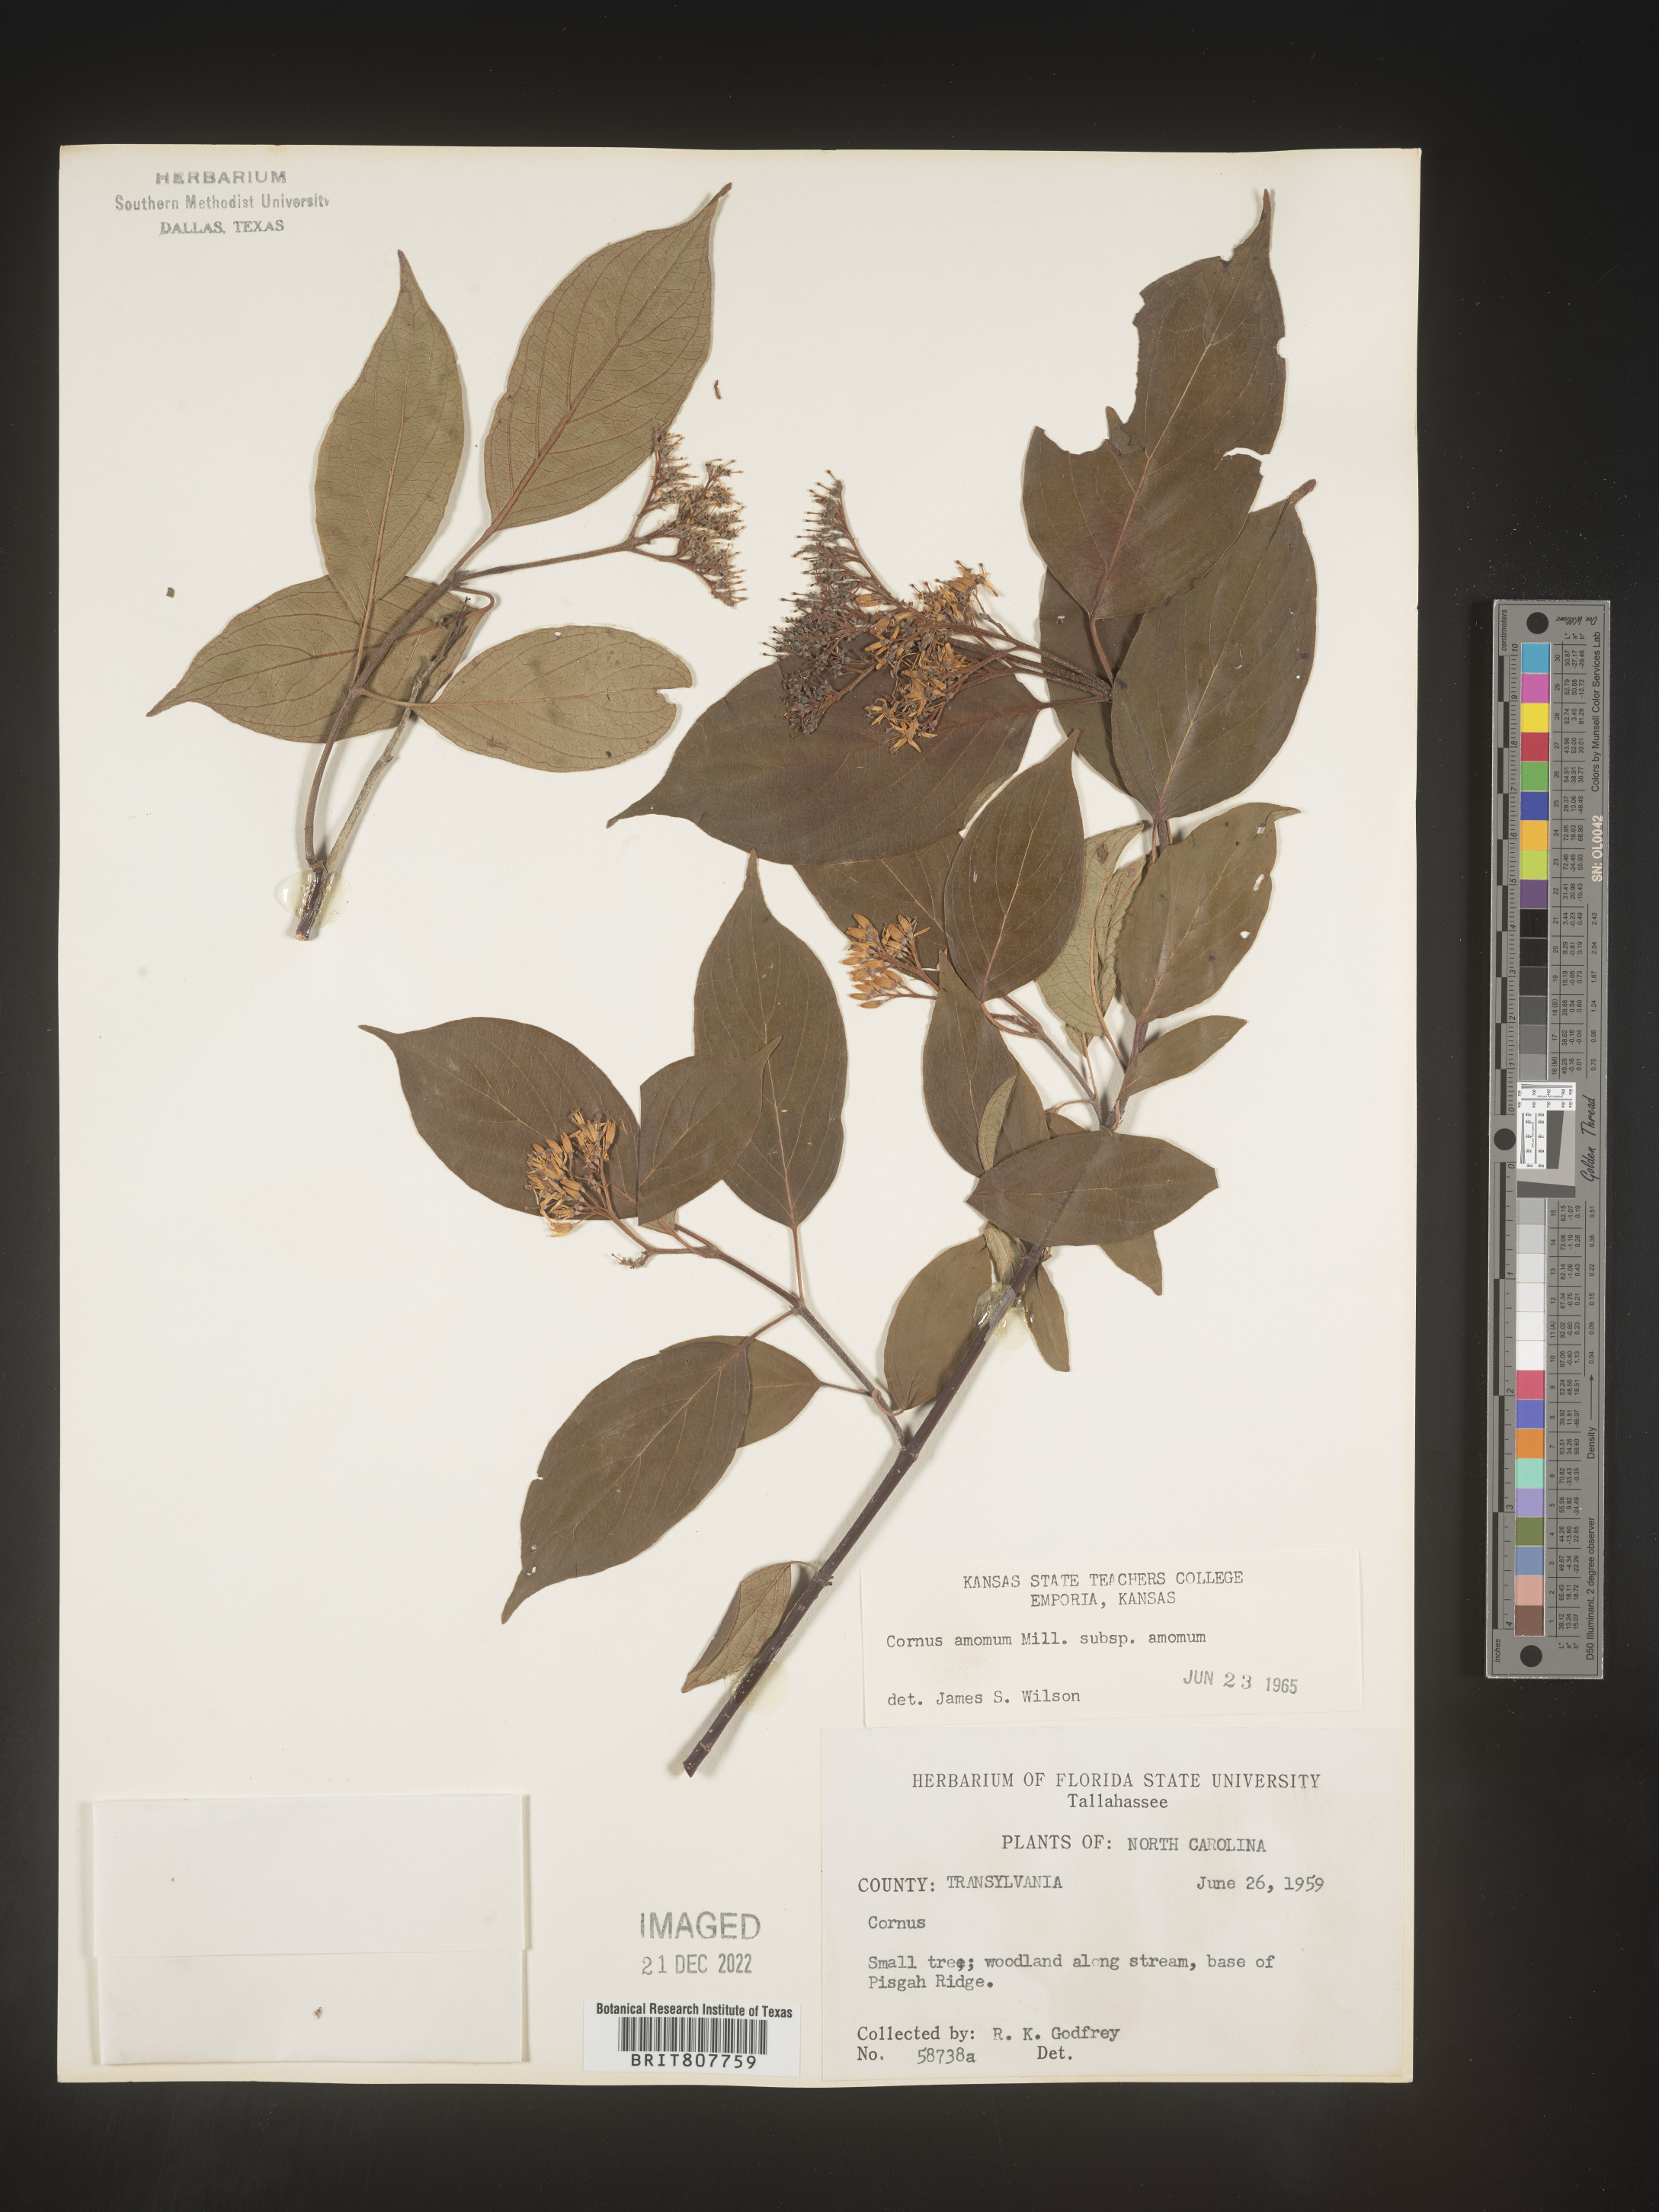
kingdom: Plantae
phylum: Tracheophyta
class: Magnoliopsida
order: Cornales
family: Cornaceae
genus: Cornus
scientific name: Cornus foemina
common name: Swamp dogwood
